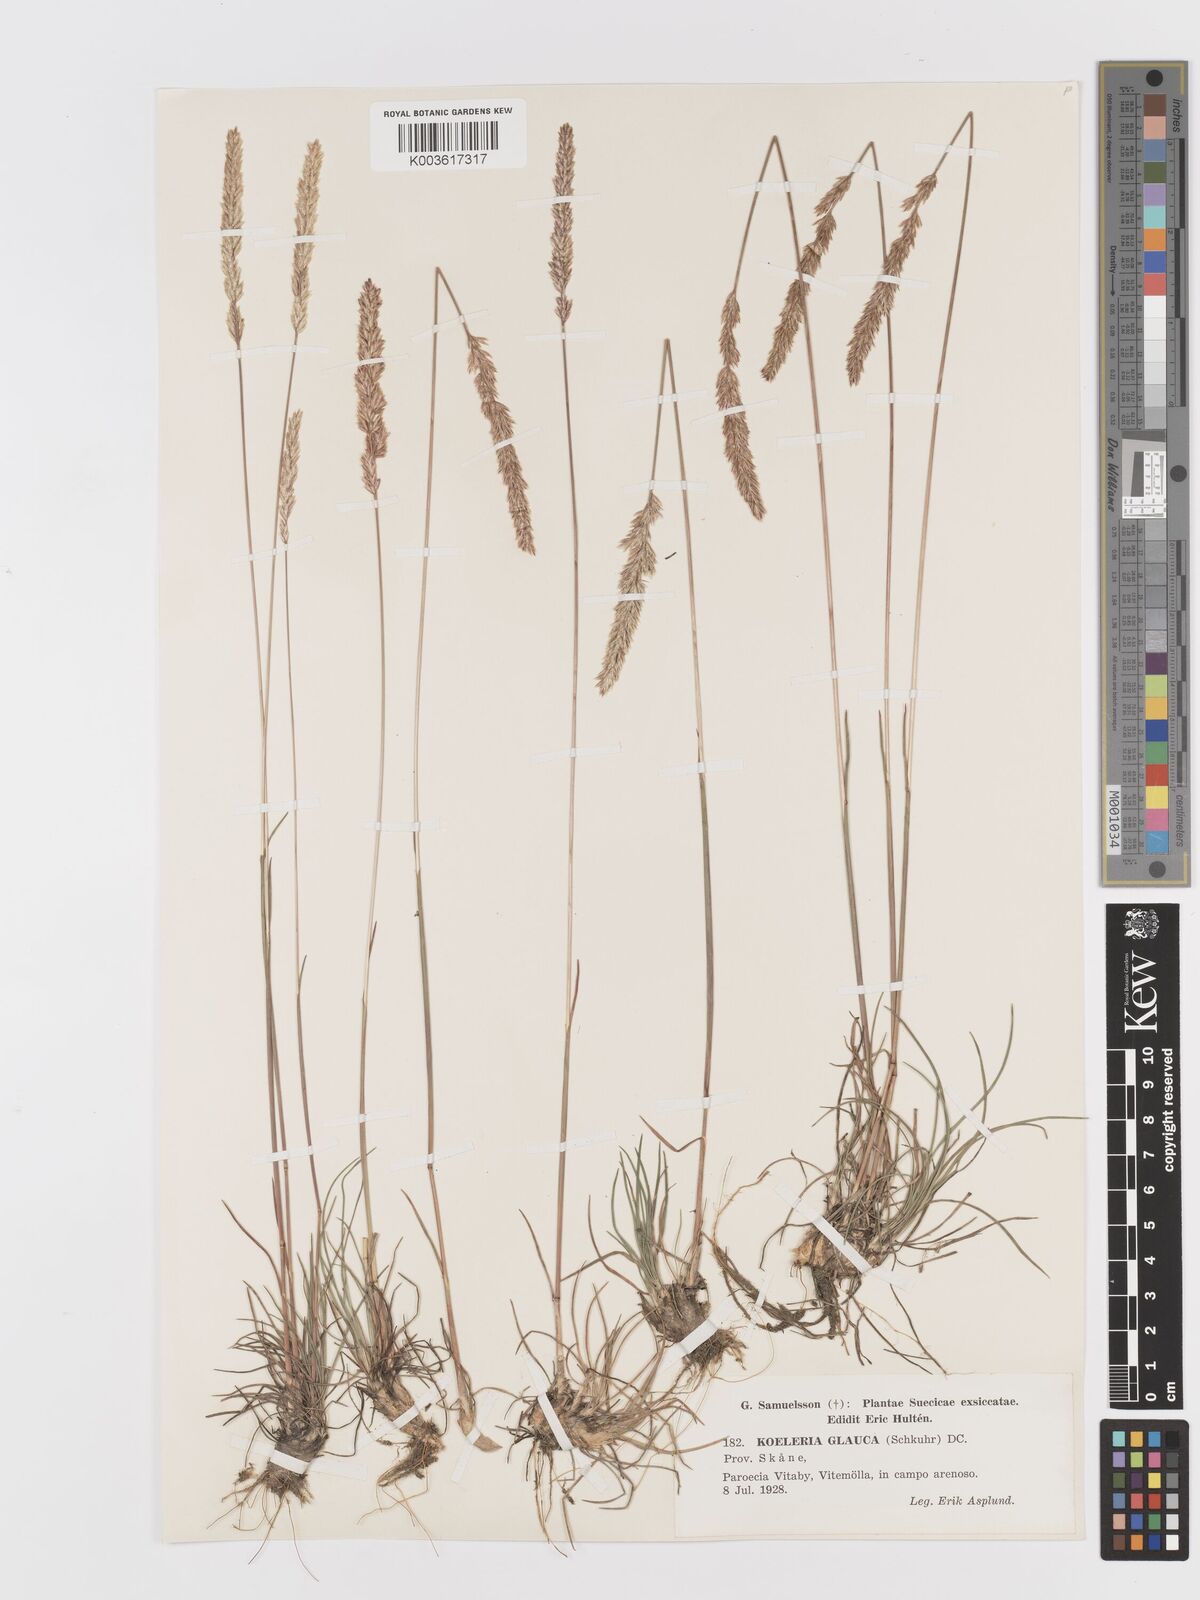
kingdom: Plantae
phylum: Tracheophyta
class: Liliopsida
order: Poales
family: Poaceae
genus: Koeleria
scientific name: Koeleria glauca
